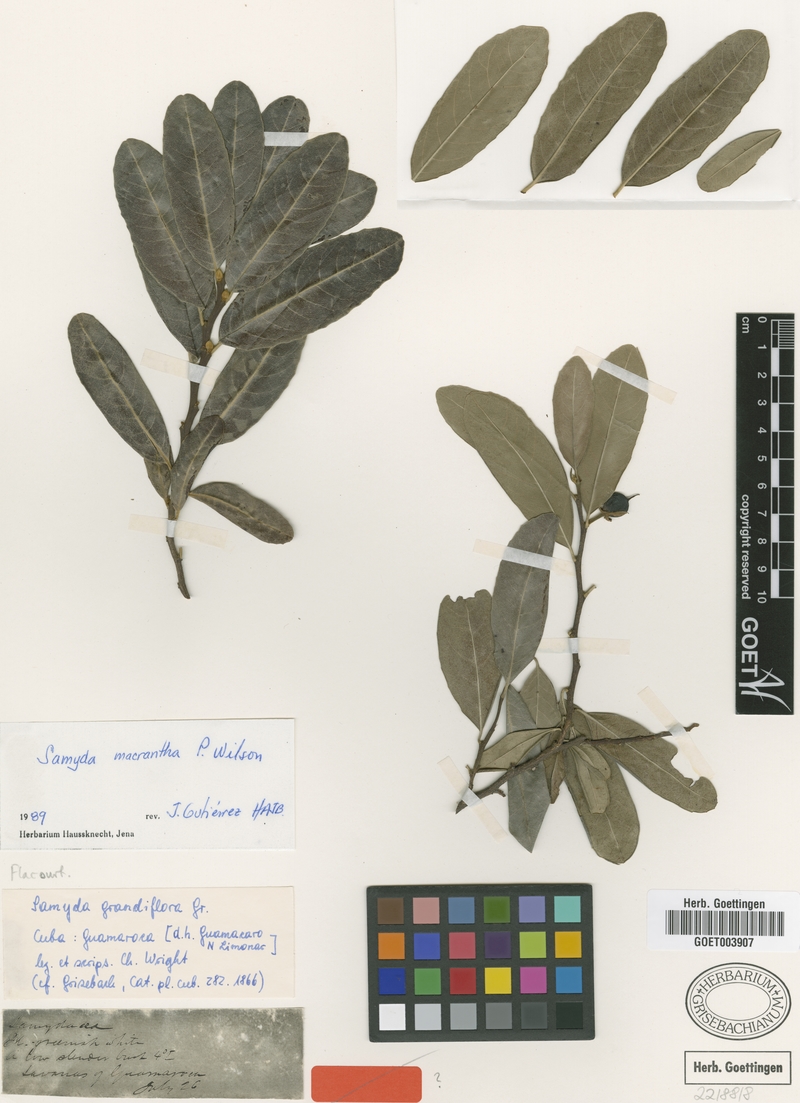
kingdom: Plantae
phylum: Tracheophyta
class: Magnoliopsida
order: Malpighiales
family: Salicaceae
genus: Casearia
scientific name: Casearia dolichanthera
